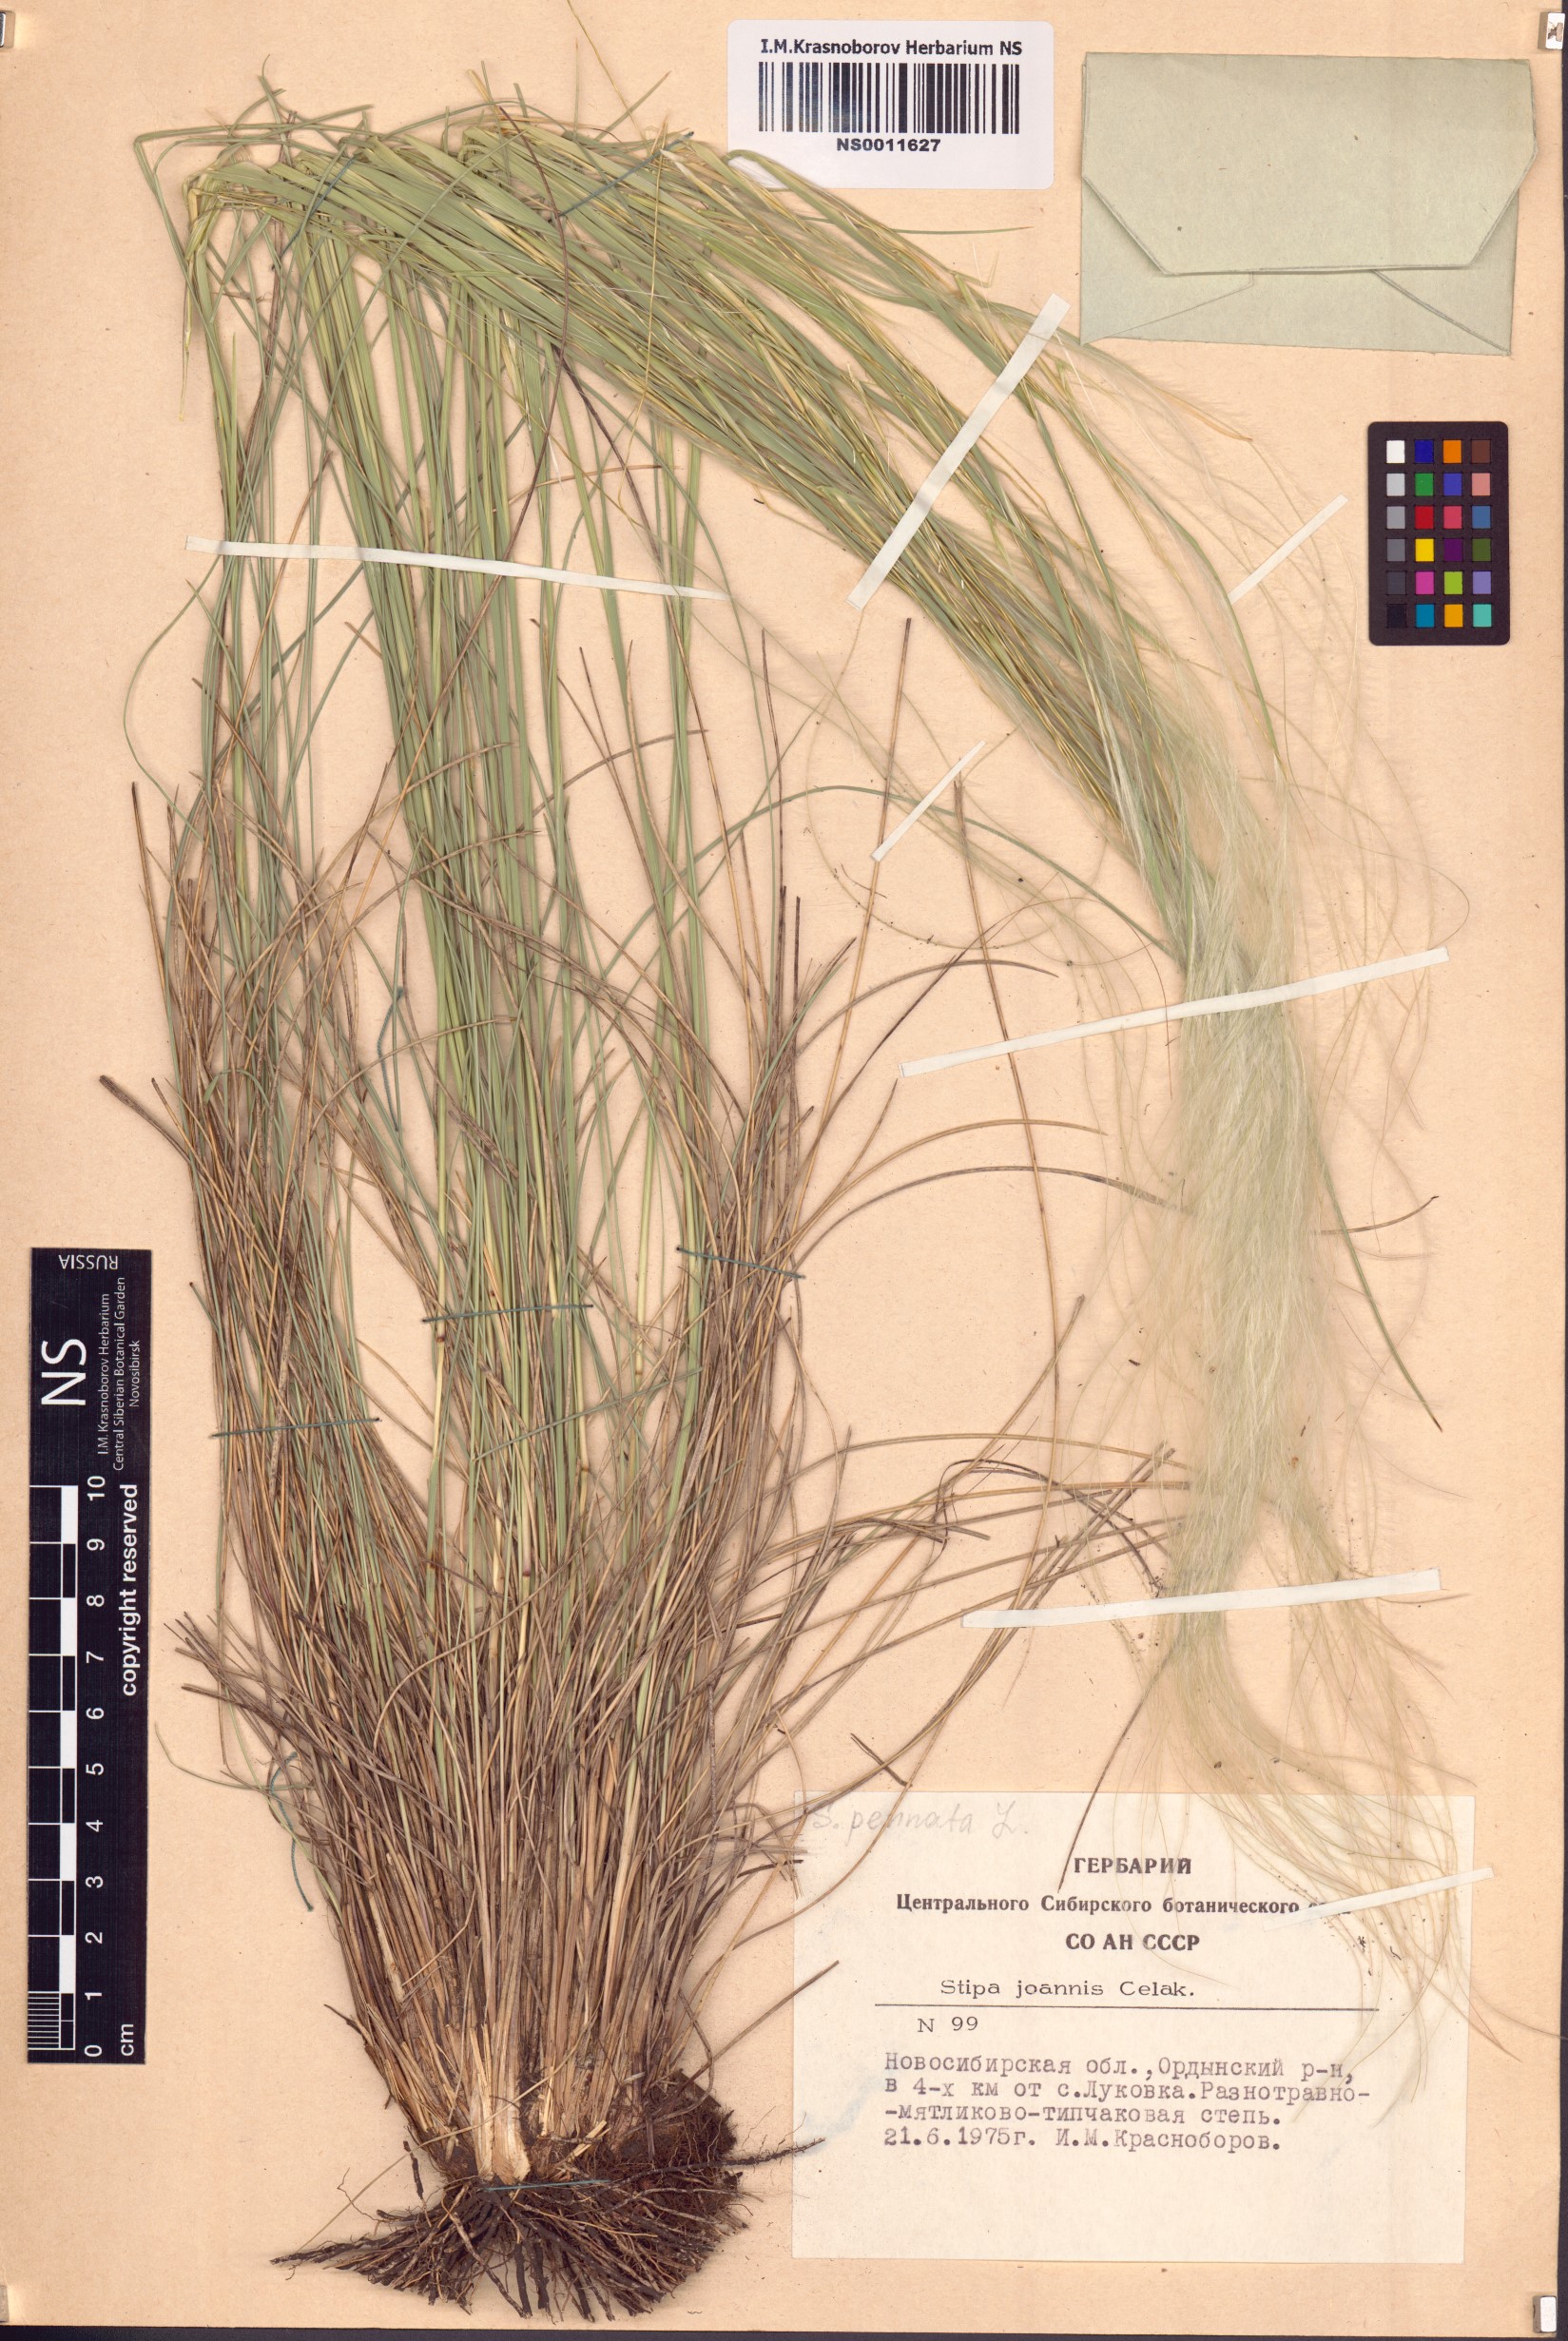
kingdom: Plantae
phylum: Tracheophyta
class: Liliopsida
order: Poales
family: Poaceae
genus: Stipa
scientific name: Stipa pennata
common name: European feather grass
